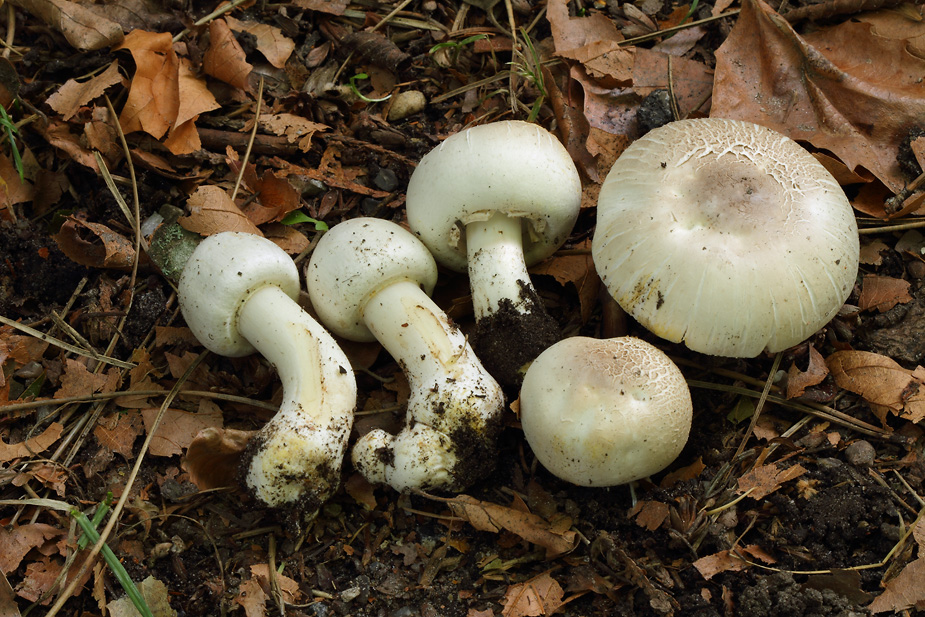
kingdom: Fungi
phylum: Basidiomycota
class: Agaricomycetes
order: Agaricales
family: Agaricaceae
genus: Agaricus
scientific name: Agaricus xanthodermus
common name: karbol-champignon
